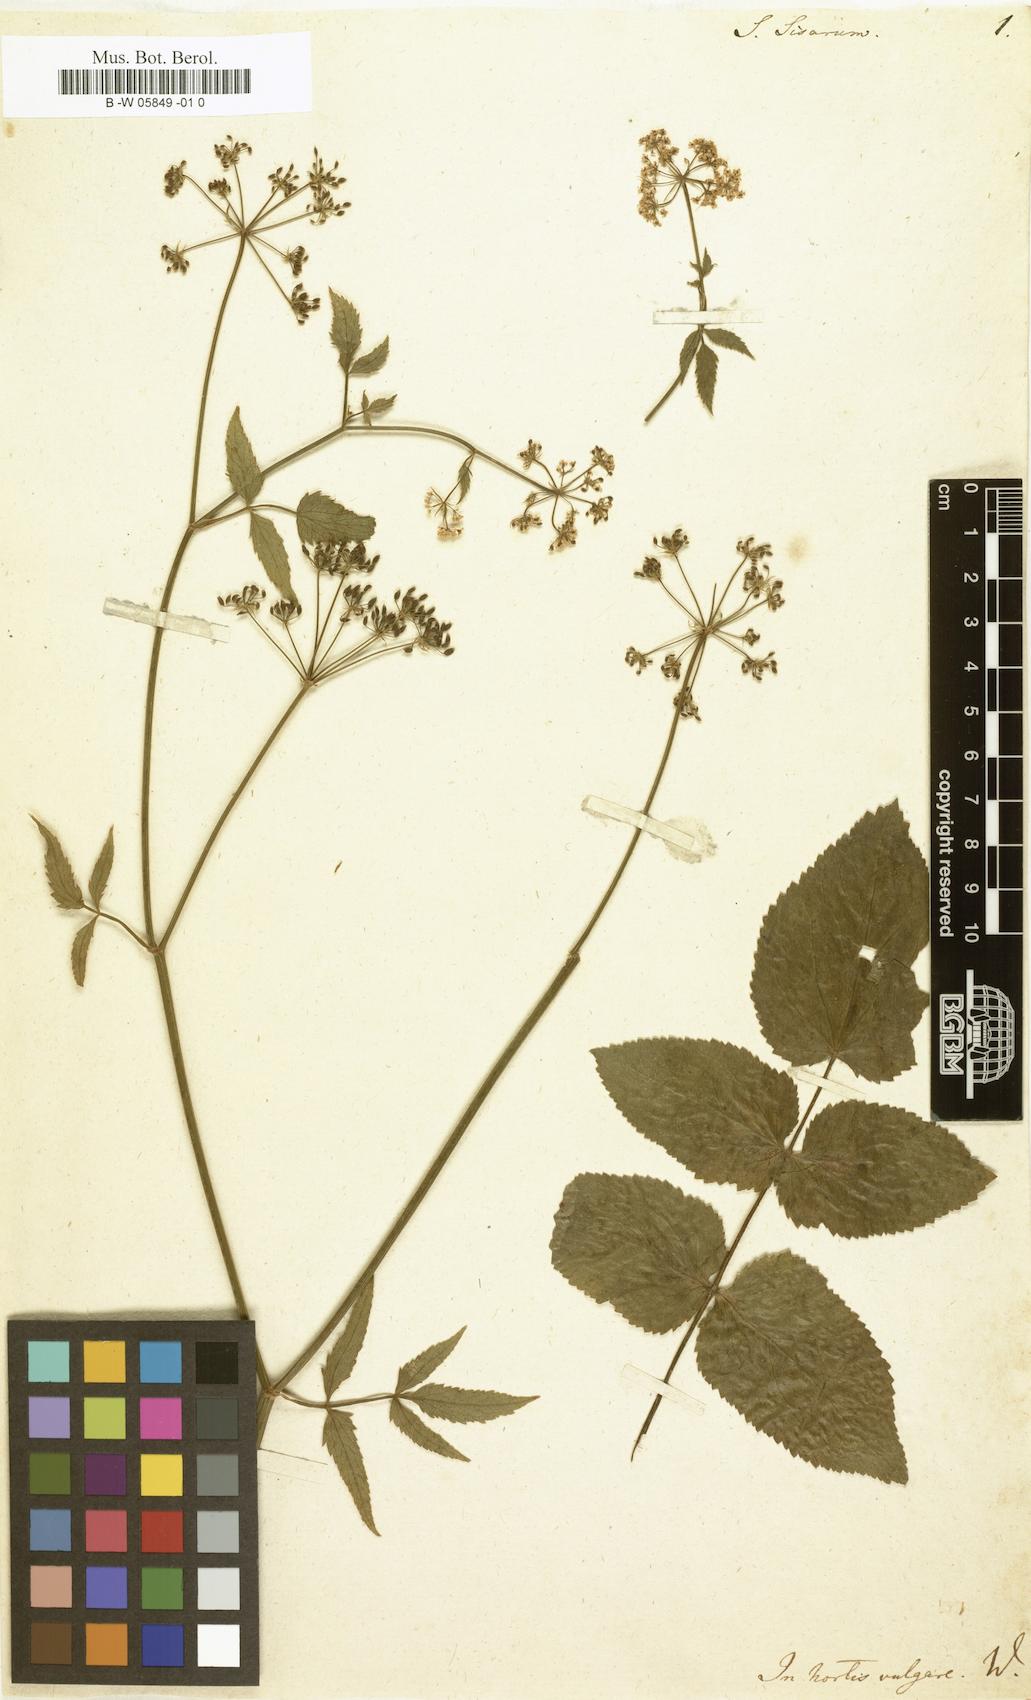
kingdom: Plantae
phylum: Tracheophyta
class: Magnoliopsida
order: Apiales
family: Apiaceae
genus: Sium
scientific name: Sium sisarum
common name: Skirret
